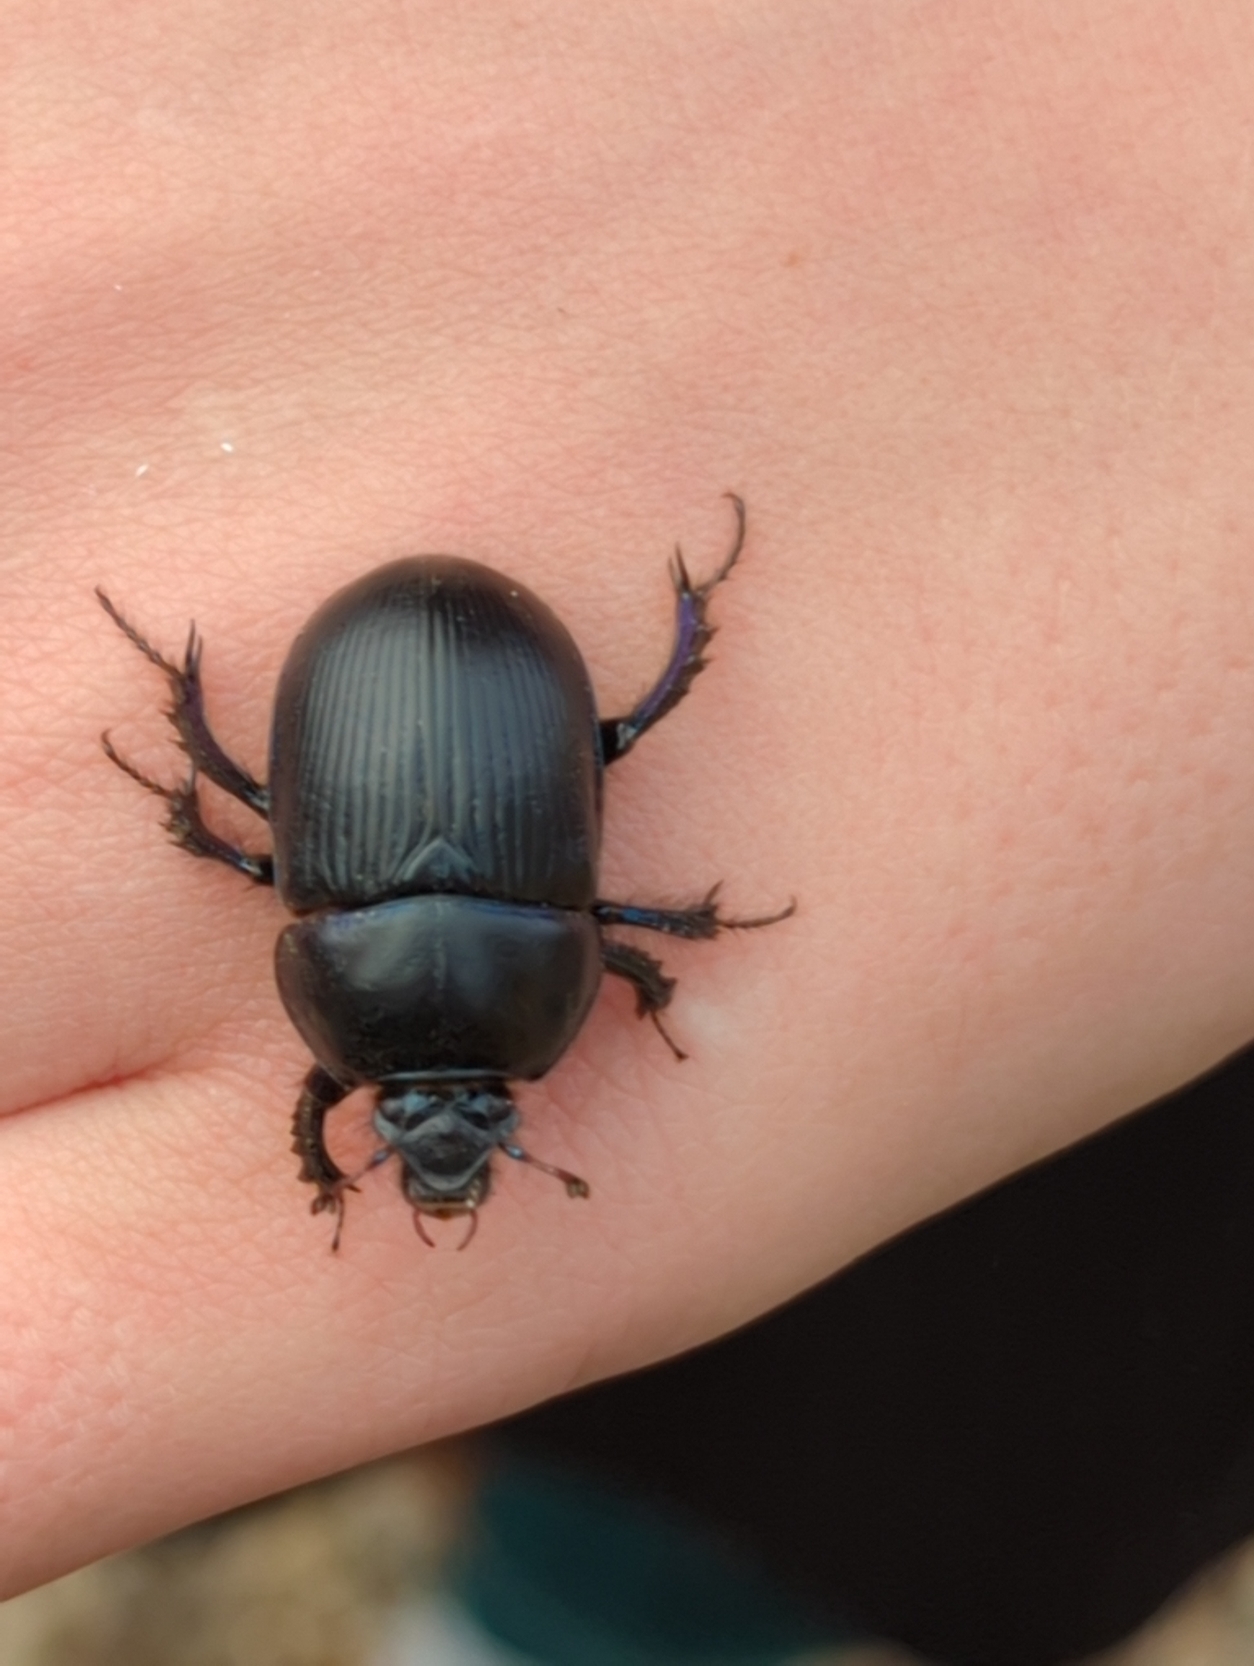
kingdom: Animalia
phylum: Arthropoda
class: Insecta
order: Coleoptera
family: Geotrupidae
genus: Anoplotrupes
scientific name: Anoplotrupes stercorosus
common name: Skovskarnbasse
